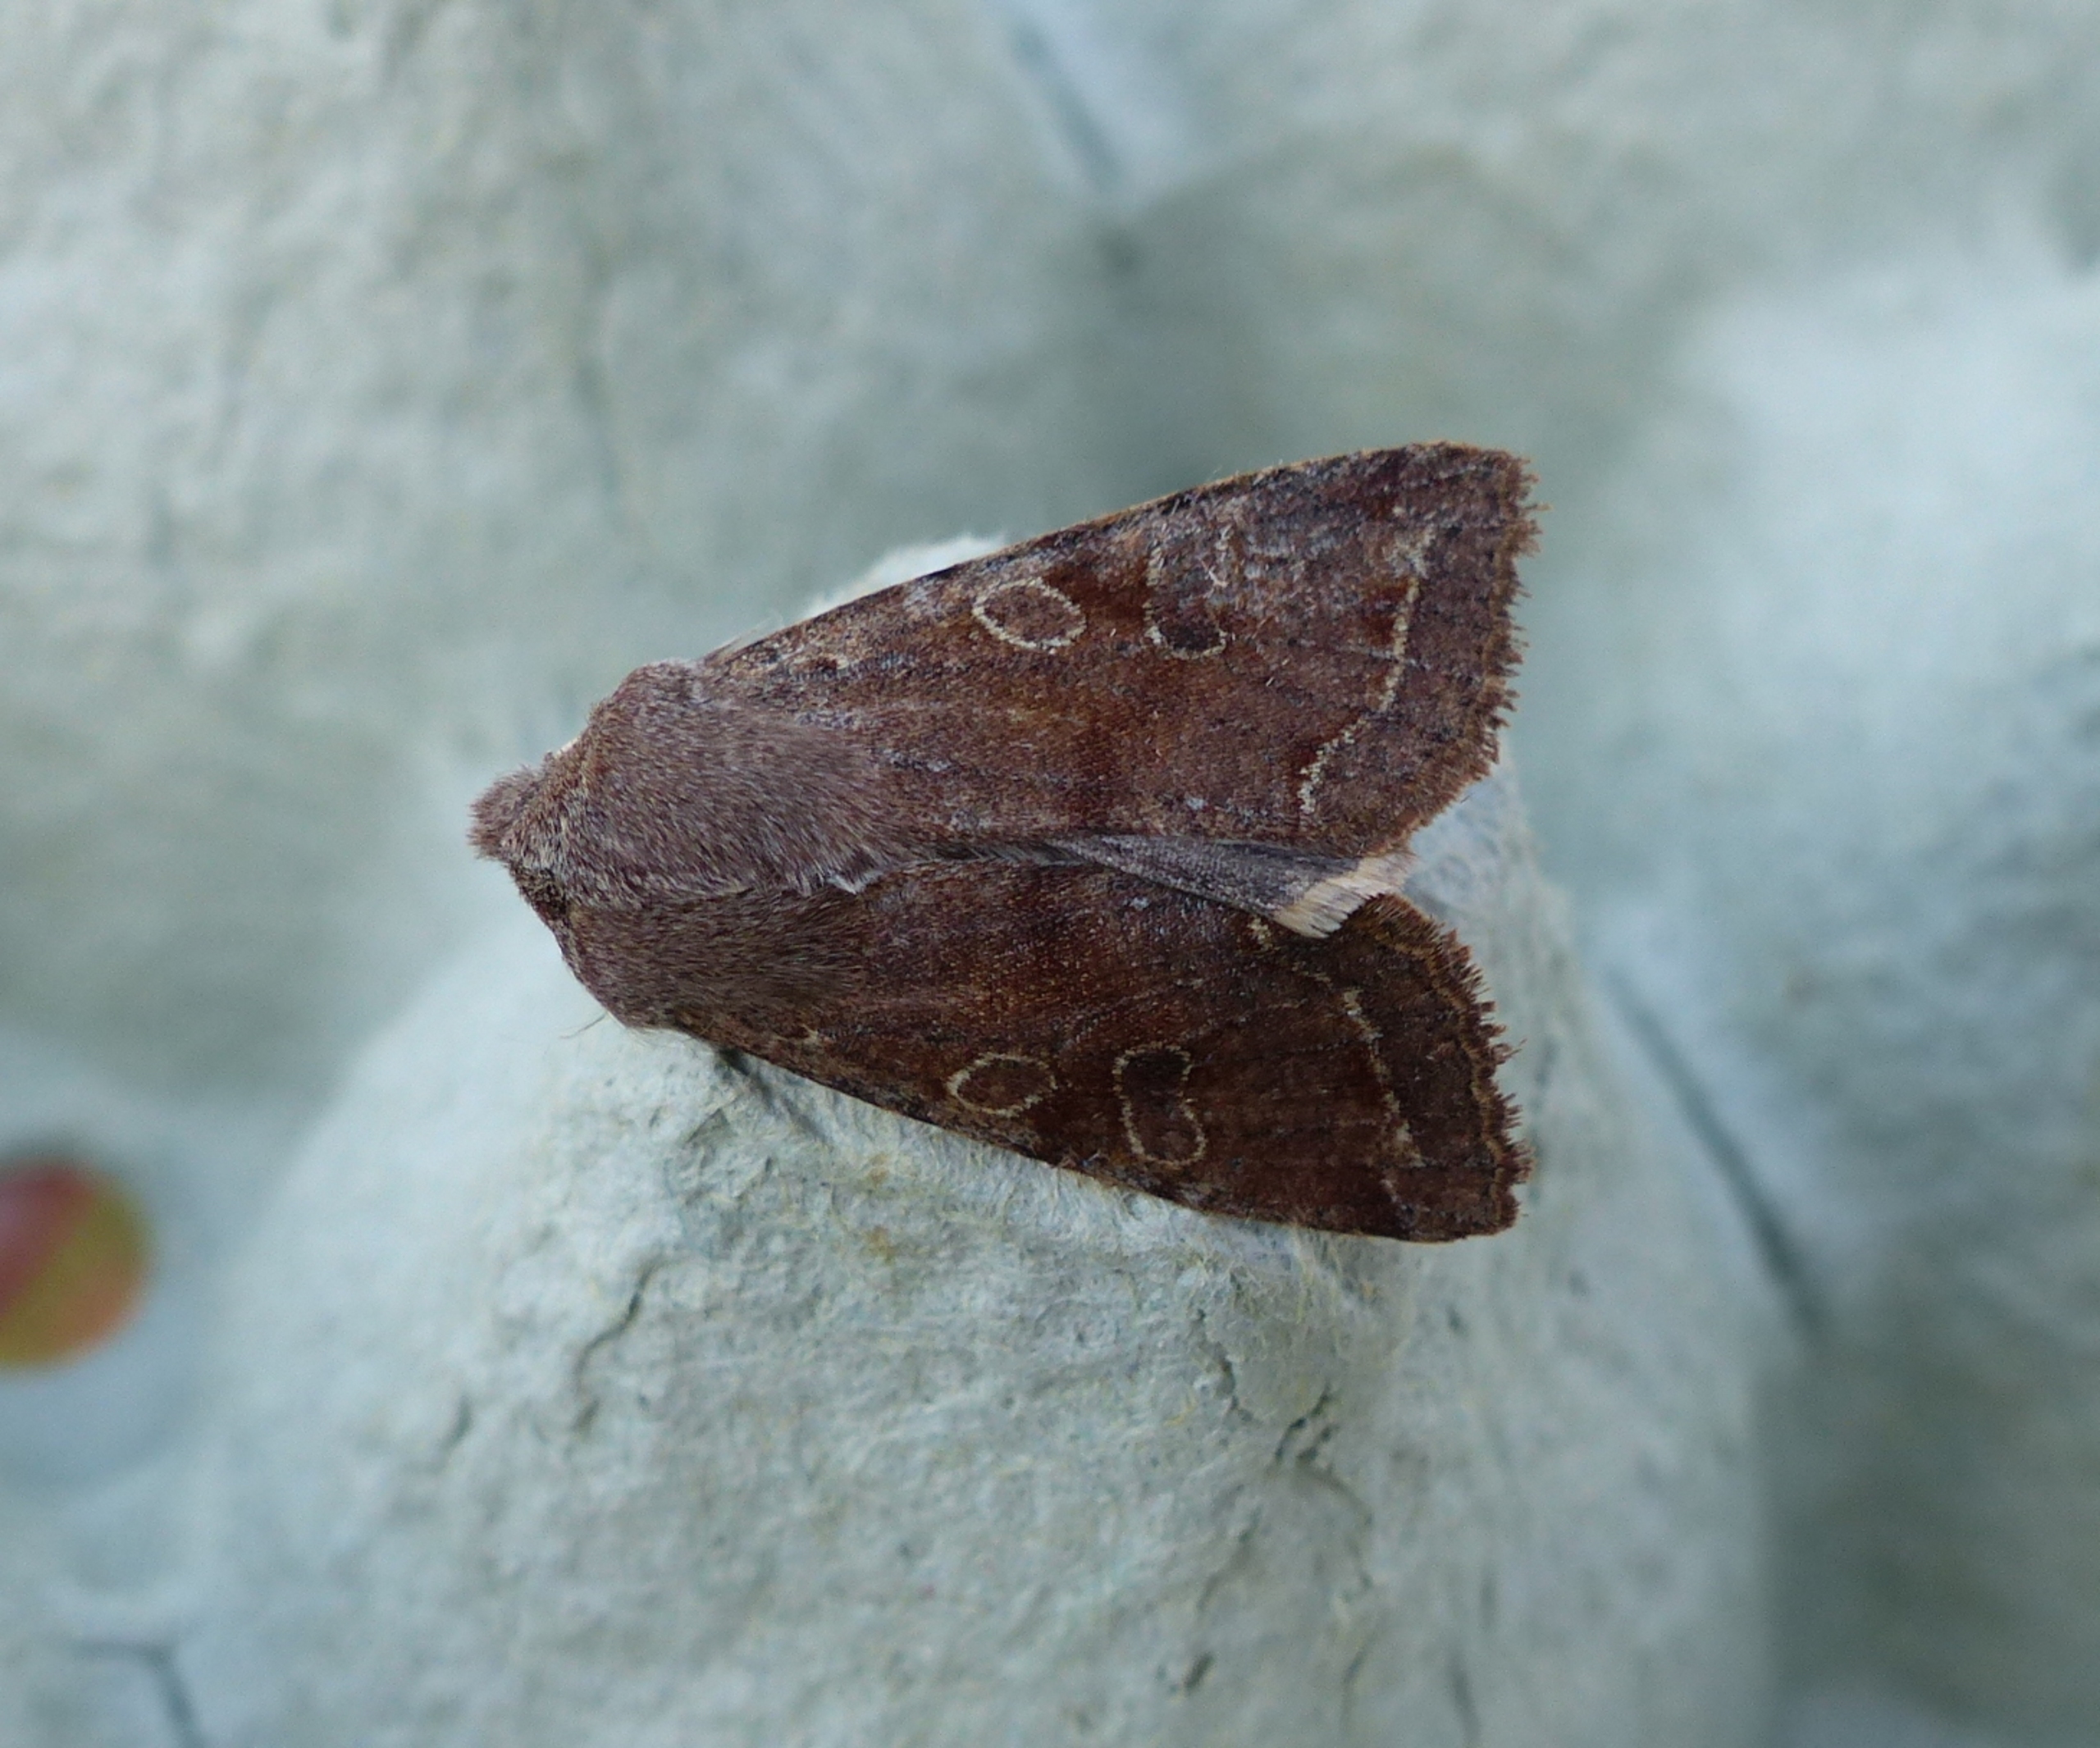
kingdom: Animalia
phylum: Arthropoda
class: Insecta
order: Lepidoptera
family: Noctuidae
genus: Orthosia
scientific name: Orthosia incerta
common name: Broget forårsugle
